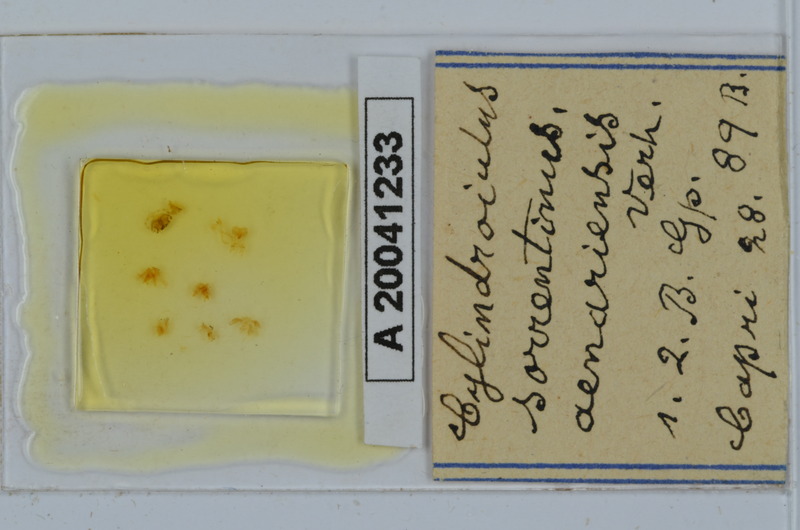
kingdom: Animalia
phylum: Arthropoda
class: Diplopoda
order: Julida
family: Julidae
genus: Cylindroiulus
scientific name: Cylindroiulus sorrentinus
